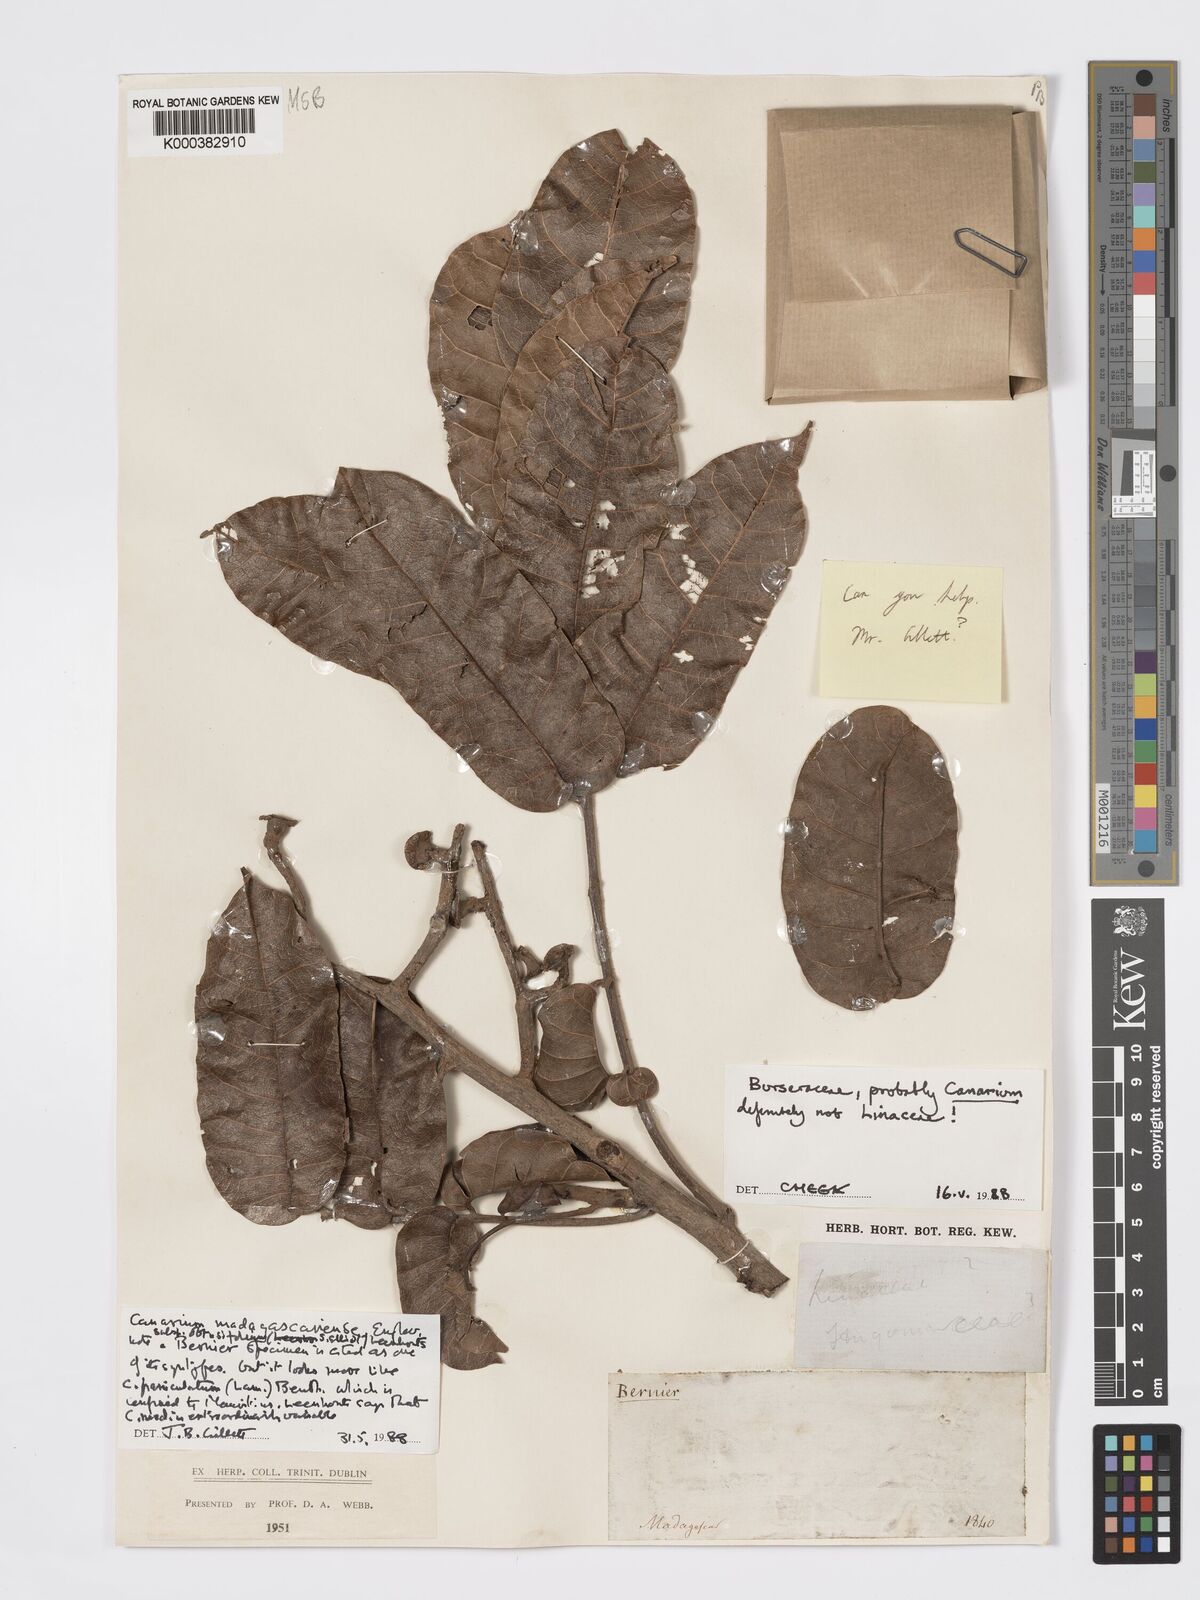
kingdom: Plantae
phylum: Tracheophyta
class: Magnoliopsida
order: Sapindales
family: Burseraceae
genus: Canarium
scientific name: Canarium madagascariense
